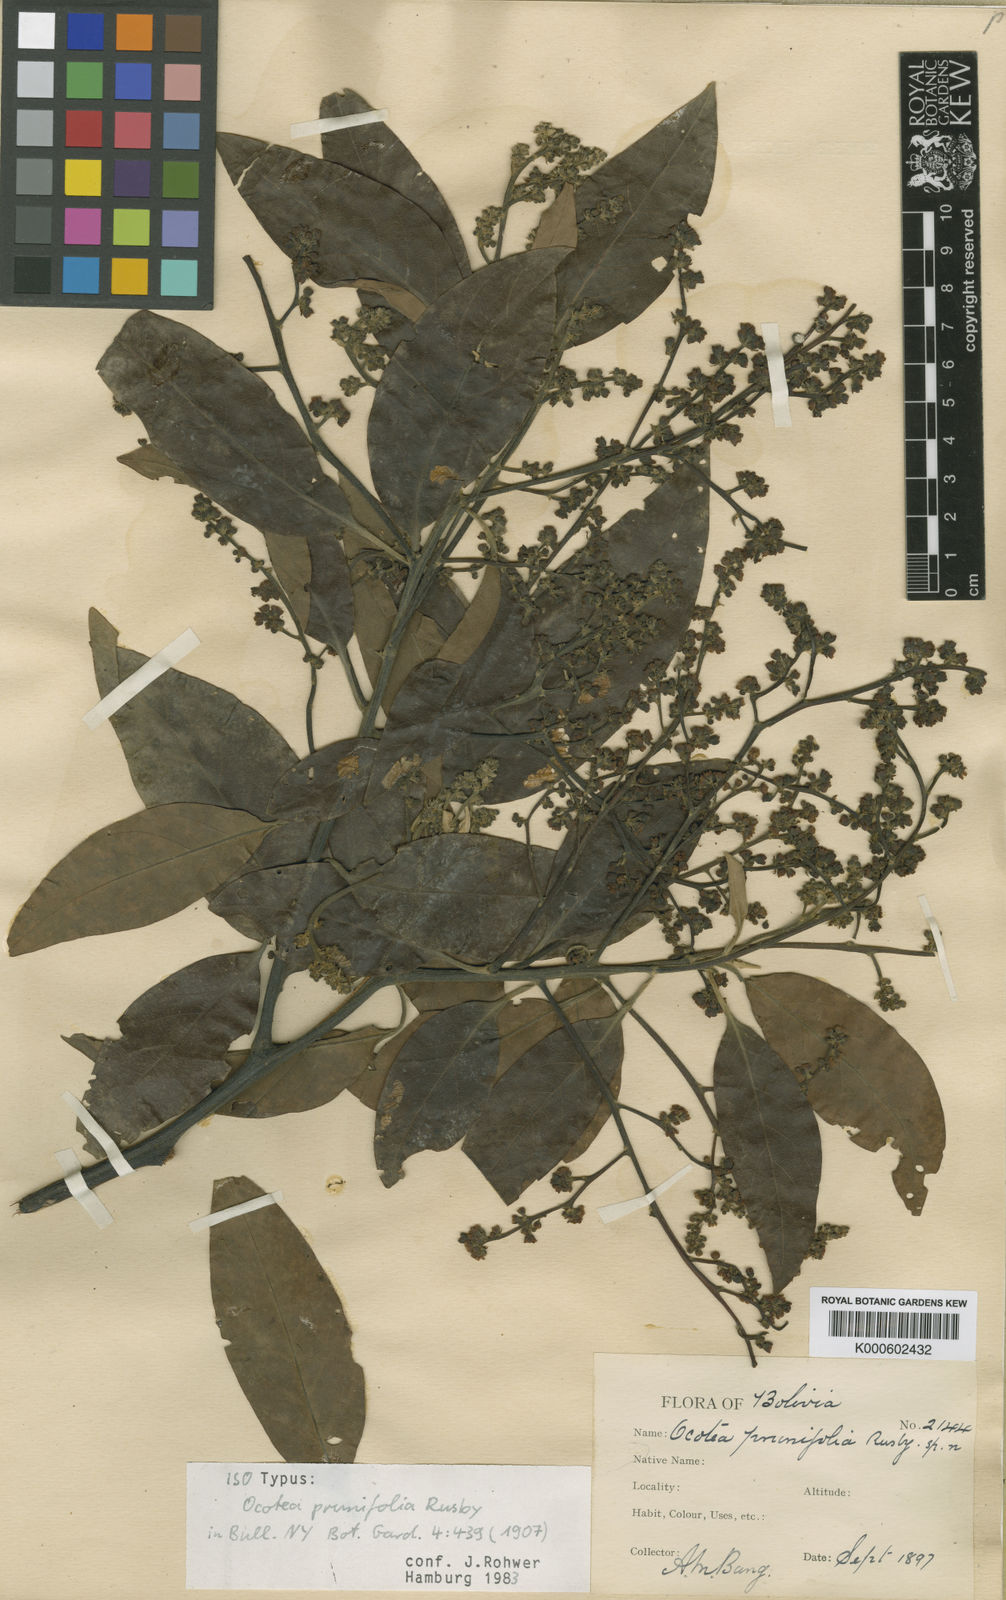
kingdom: Plantae
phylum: Tracheophyta
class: Magnoliopsida
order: Laurales
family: Lauraceae
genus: Ocotea
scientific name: Ocotea prunifolia
